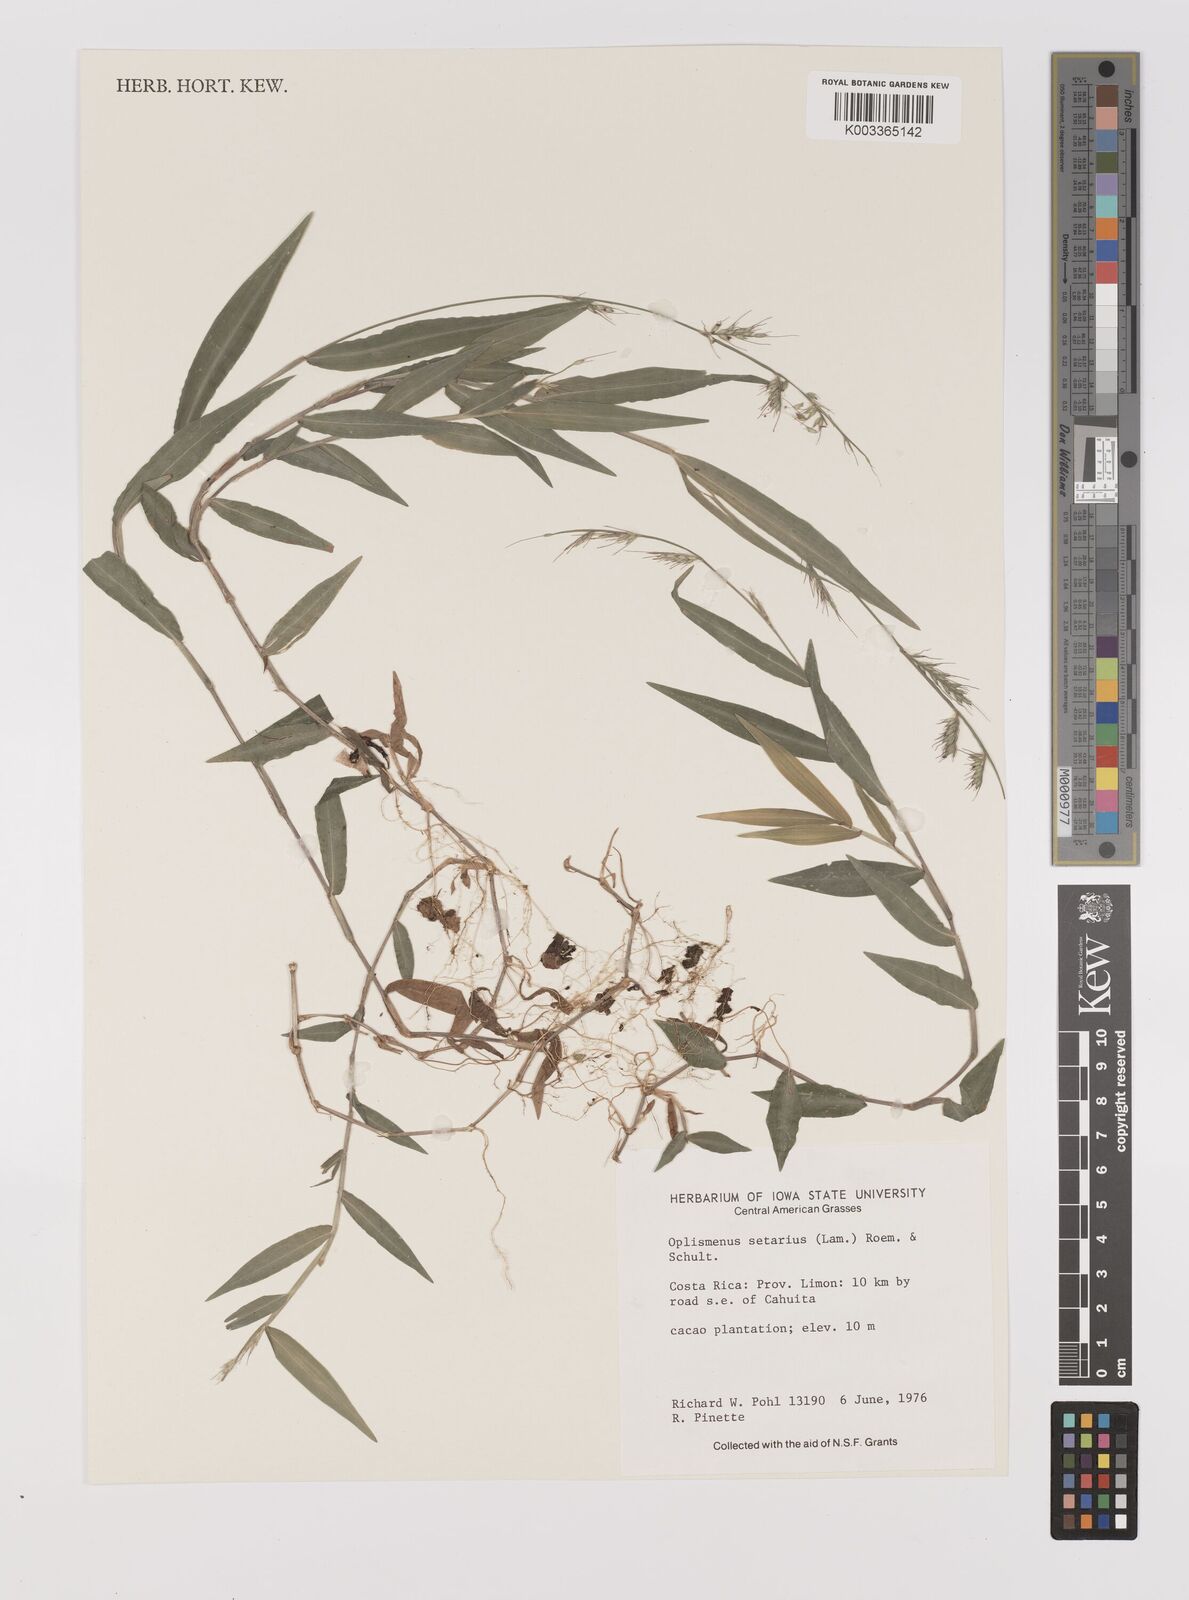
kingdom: Plantae
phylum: Tracheophyta
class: Liliopsida
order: Poales
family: Poaceae
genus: Oplismenus
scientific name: Oplismenus hirtellus
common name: Basketgrass
